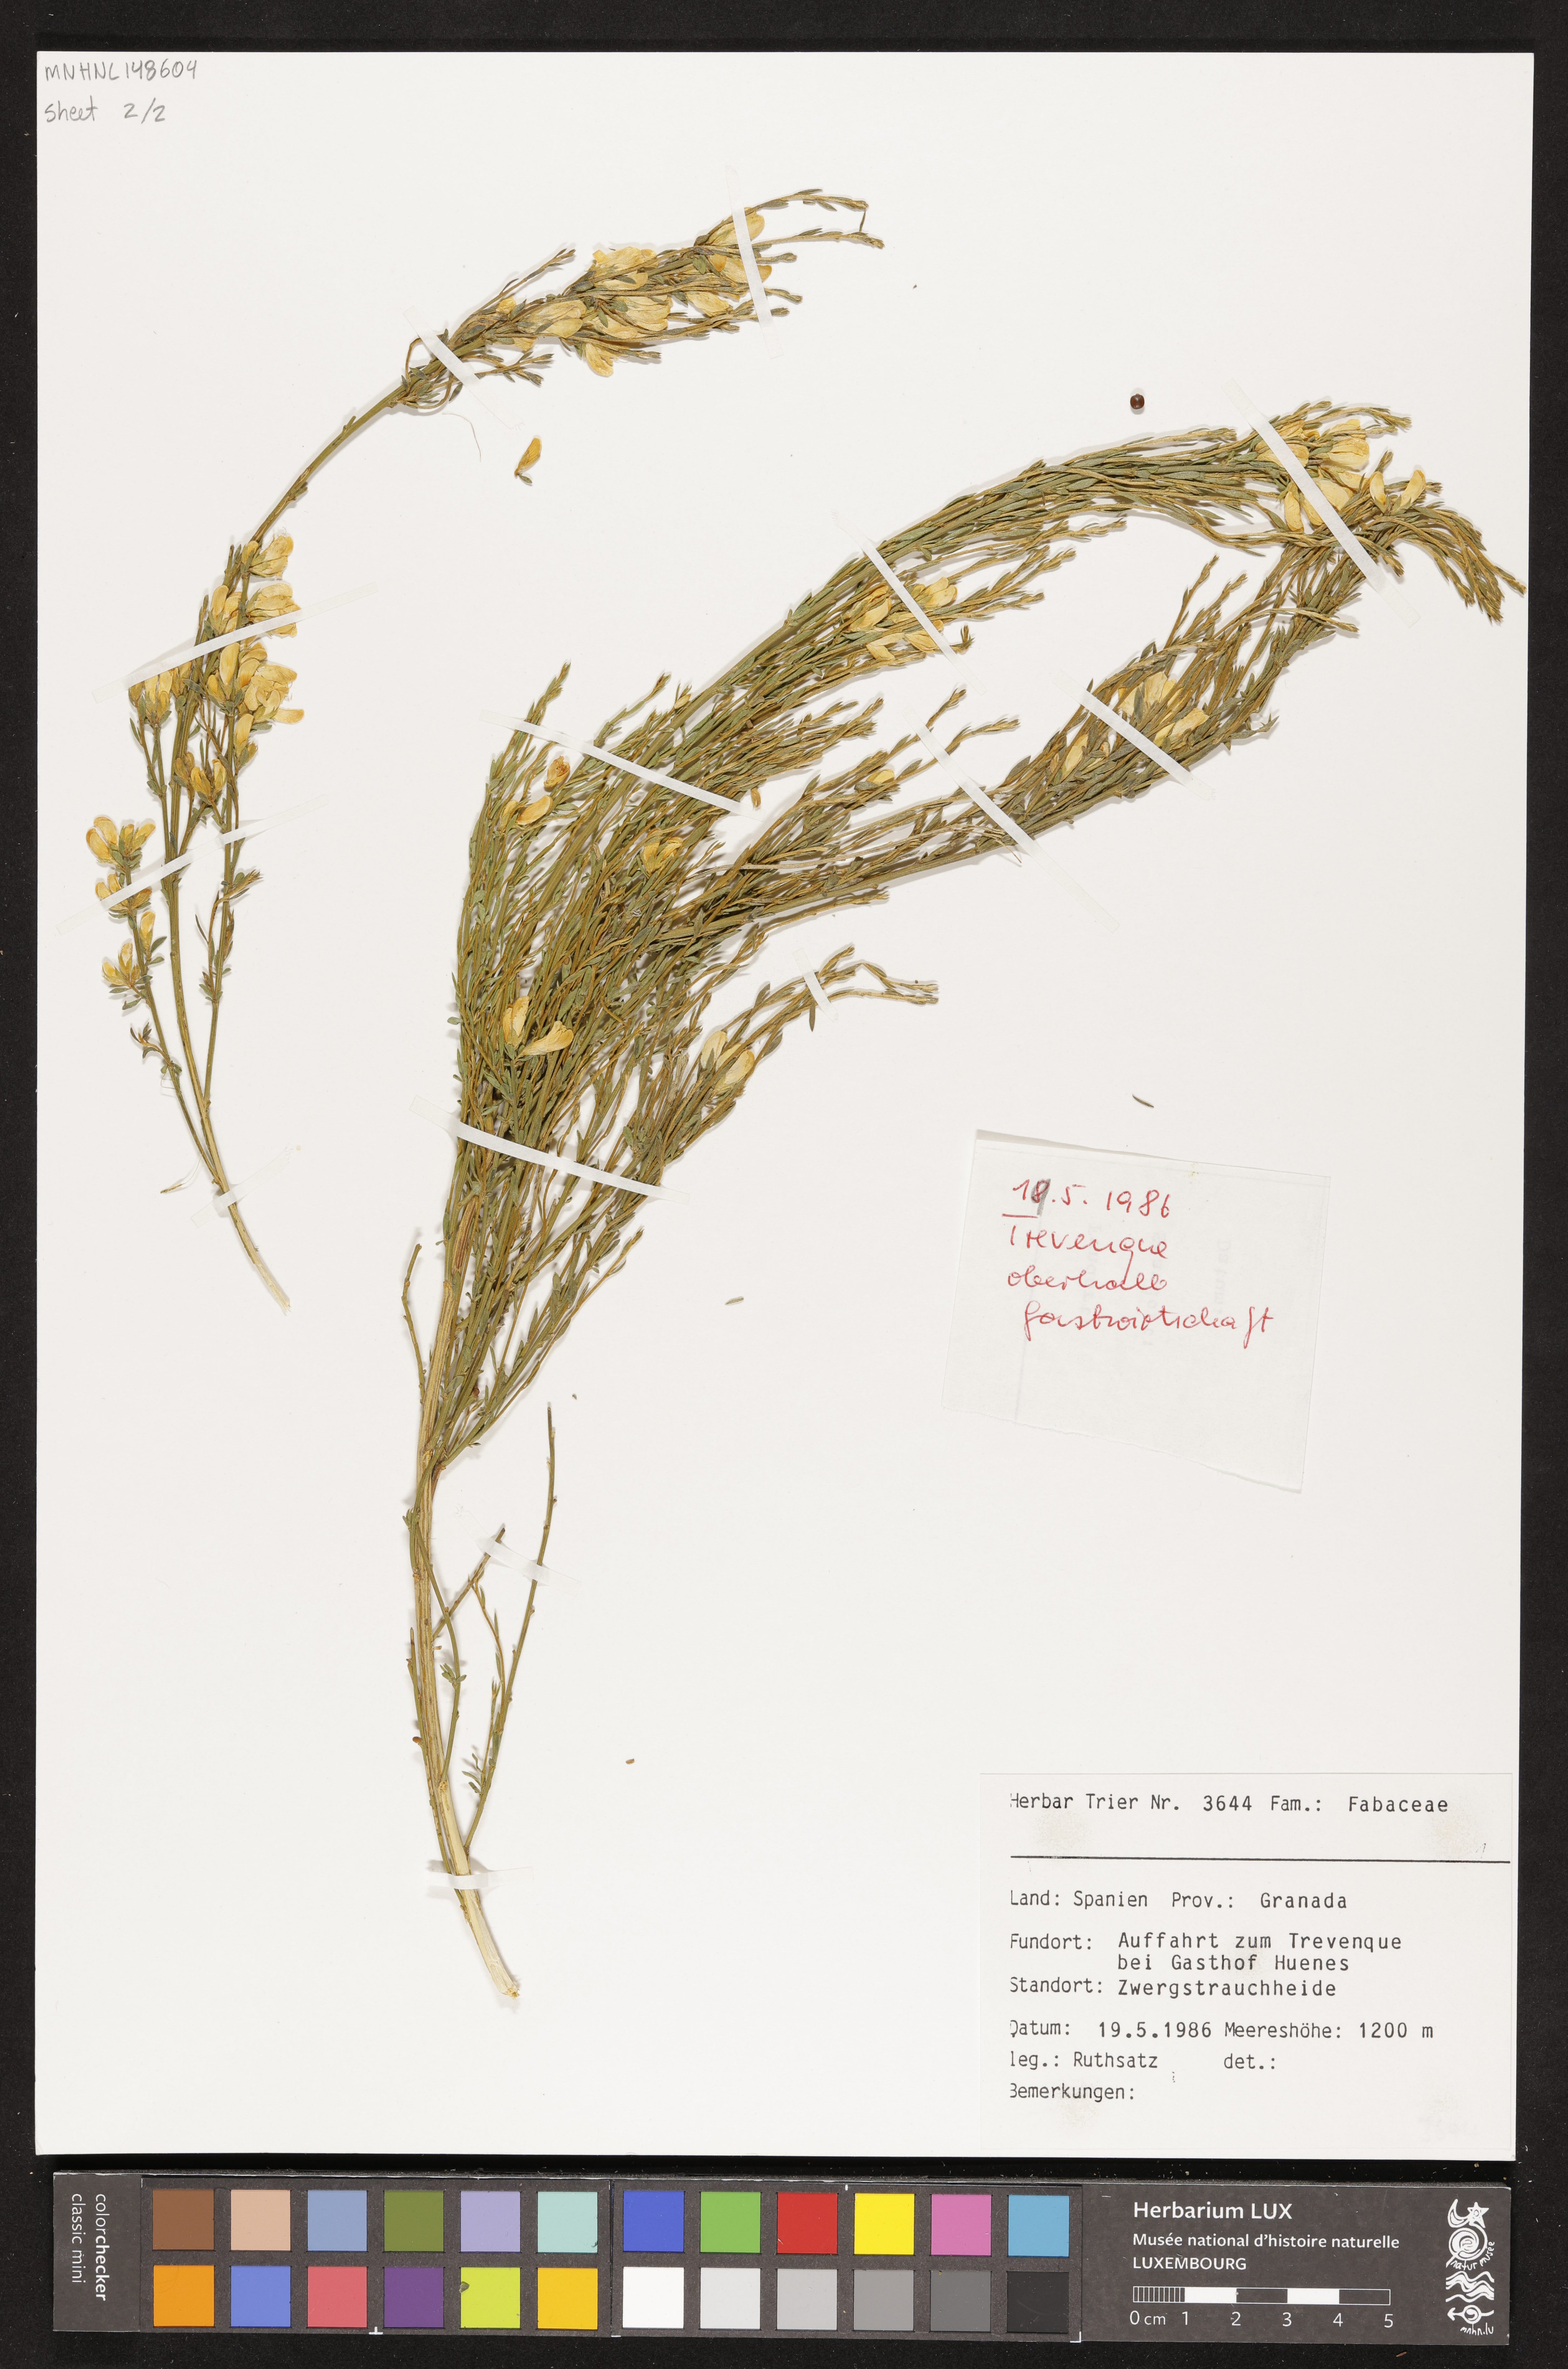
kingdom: Plantae
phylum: Tracheophyta
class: Magnoliopsida
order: Fabales
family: Fabaceae
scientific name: Fabaceae
